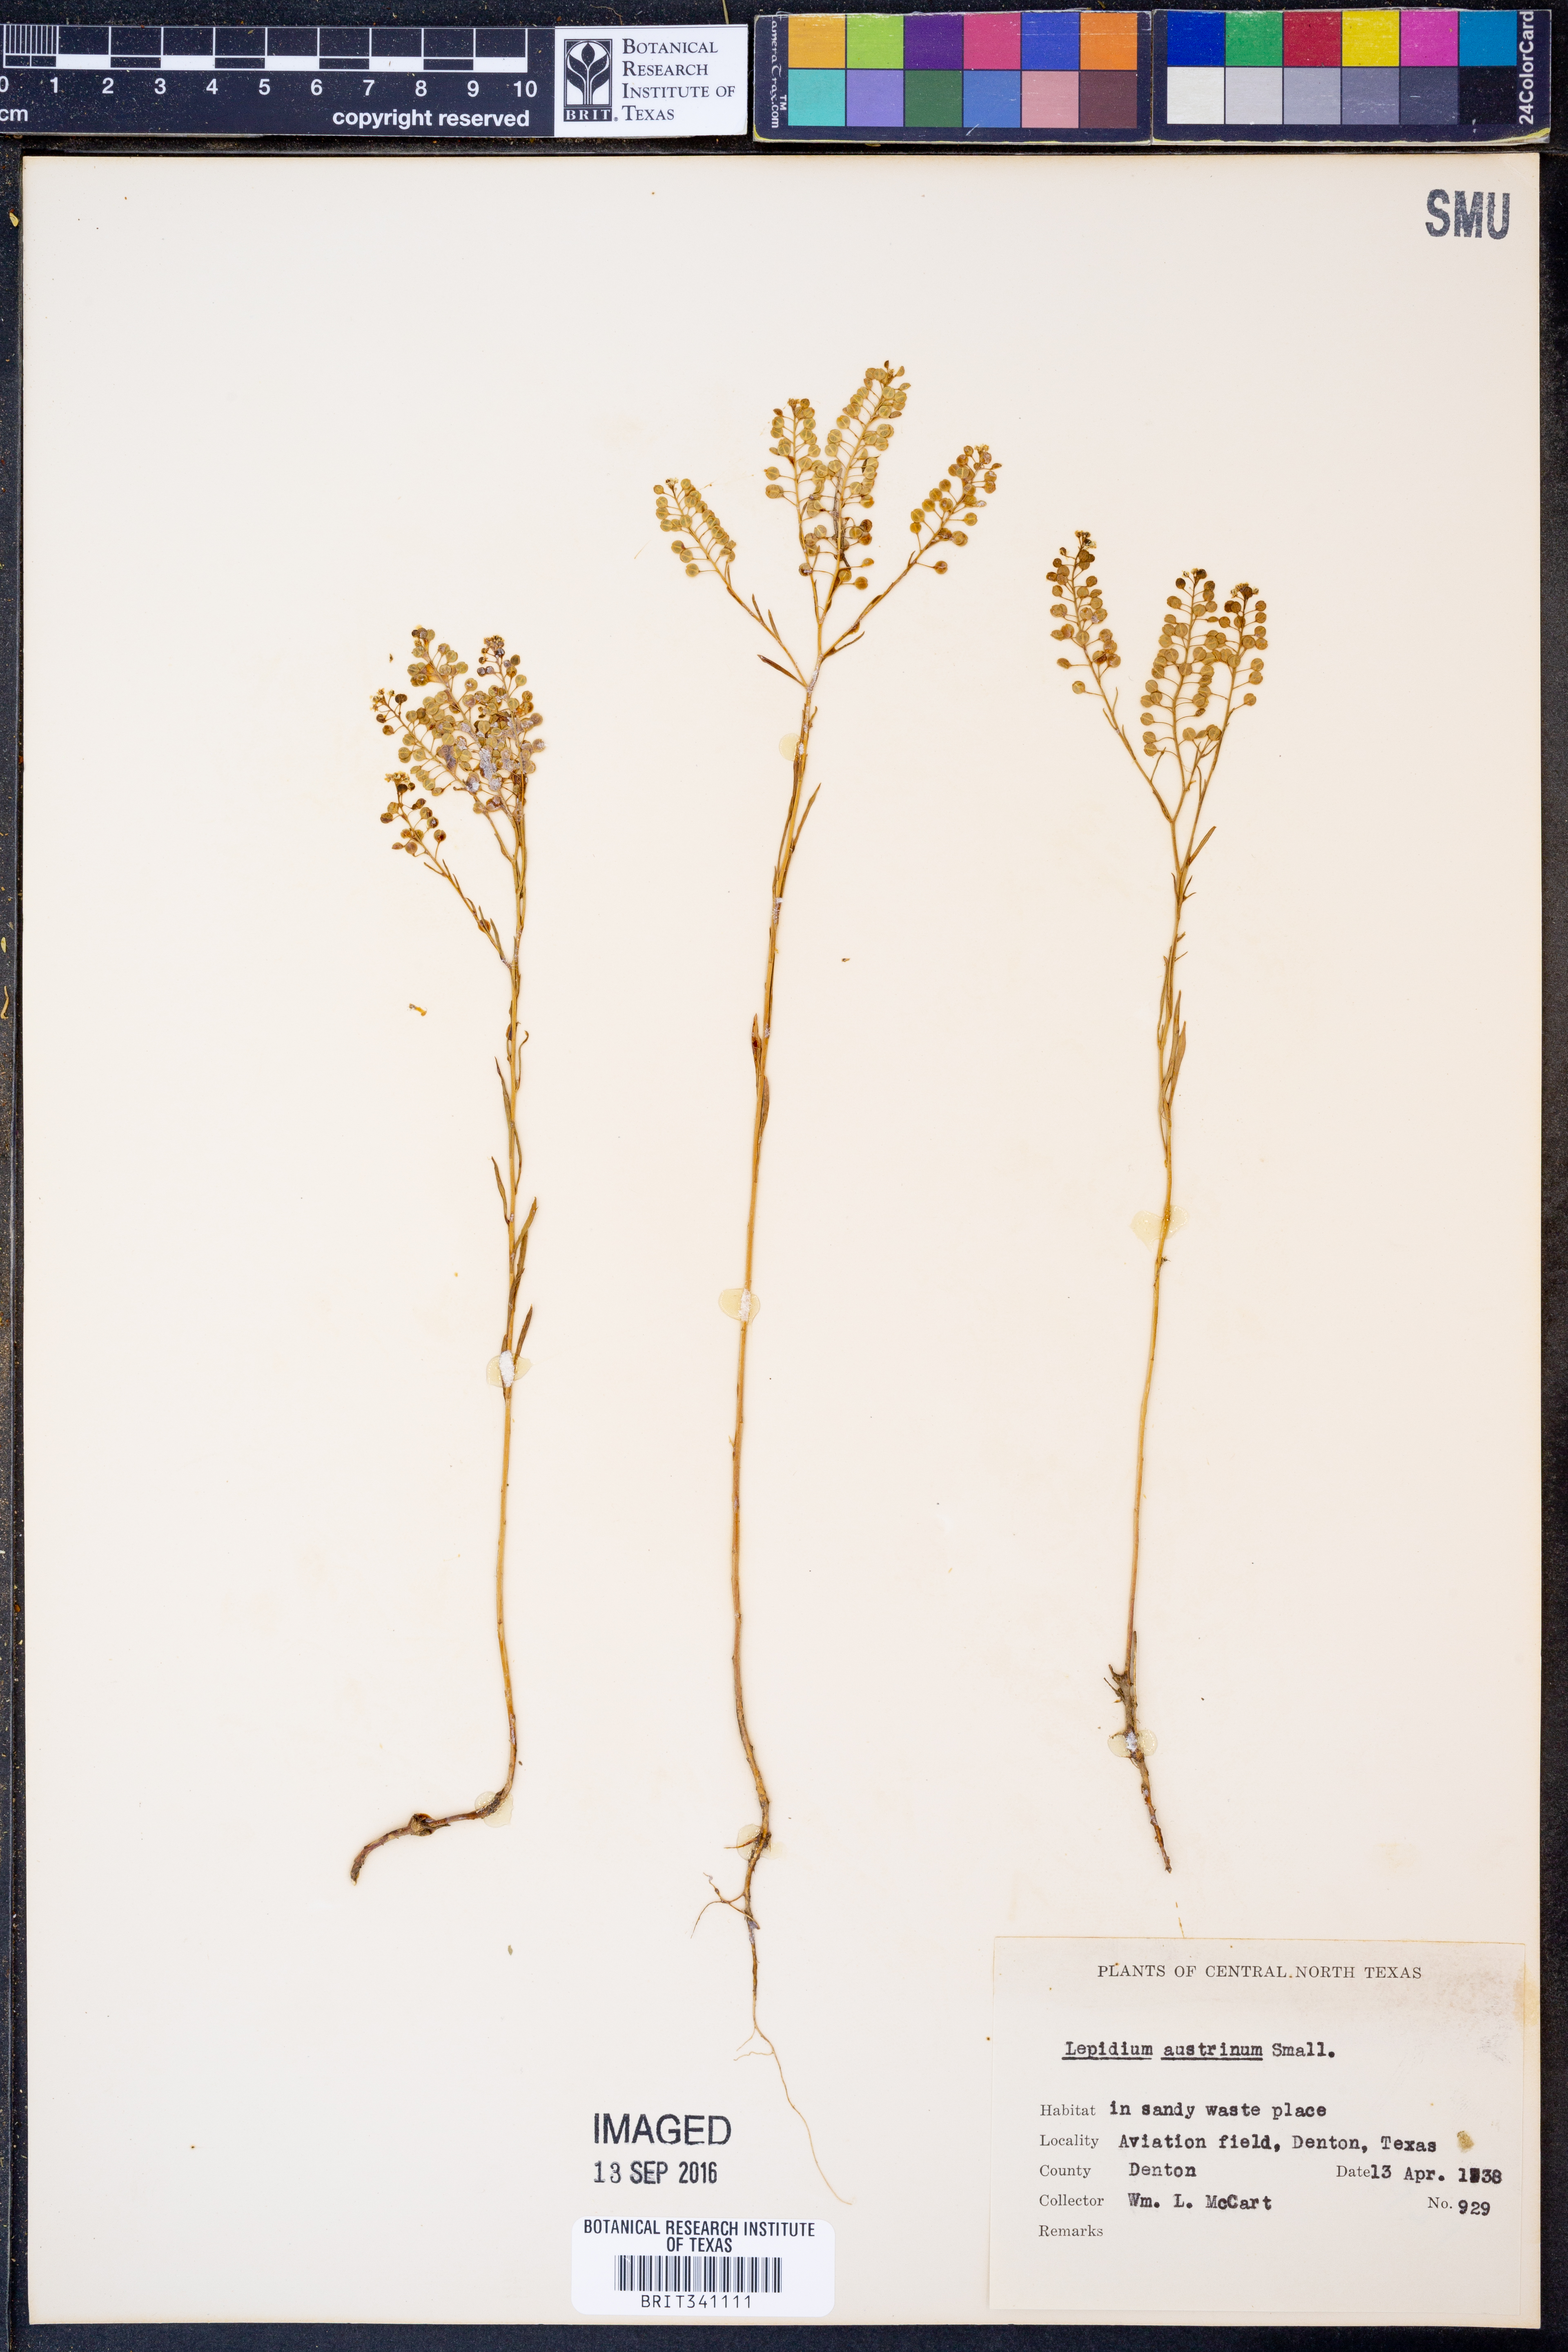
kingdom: Plantae
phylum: Tracheophyta
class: Magnoliopsida
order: Brassicales
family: Brassicaceae
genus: Lepidium
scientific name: Lepidium austrinum
